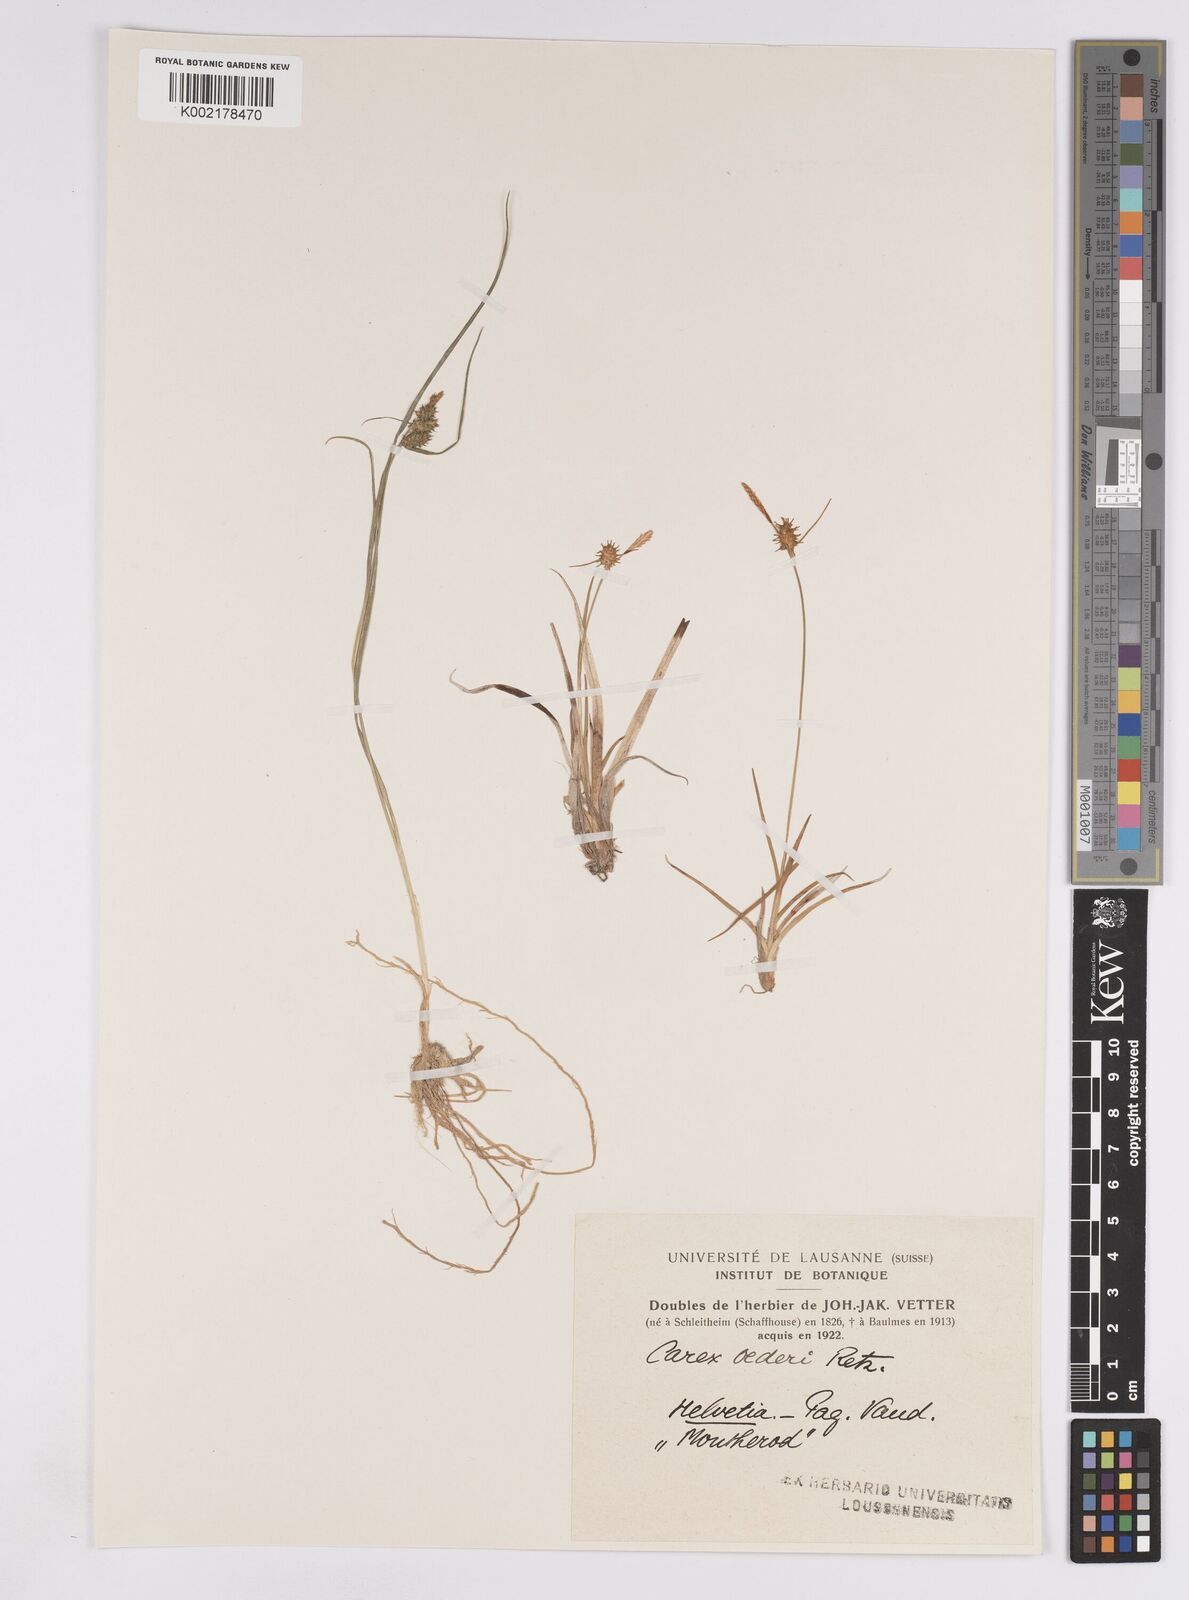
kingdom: Plantae
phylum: Tracheophyta
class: Liliopsida
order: Poales
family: Cyperaceae
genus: Carex
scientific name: Carex demissa
